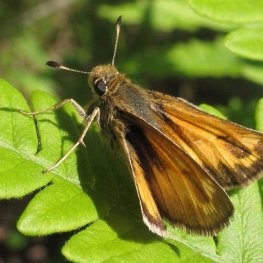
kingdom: Animalia
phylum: Arthropoda
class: Insecta
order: Lepidoptera
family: Hesperiidae
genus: Hesperia
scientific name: Hesperia sassacus
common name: Sassacus Skipper
